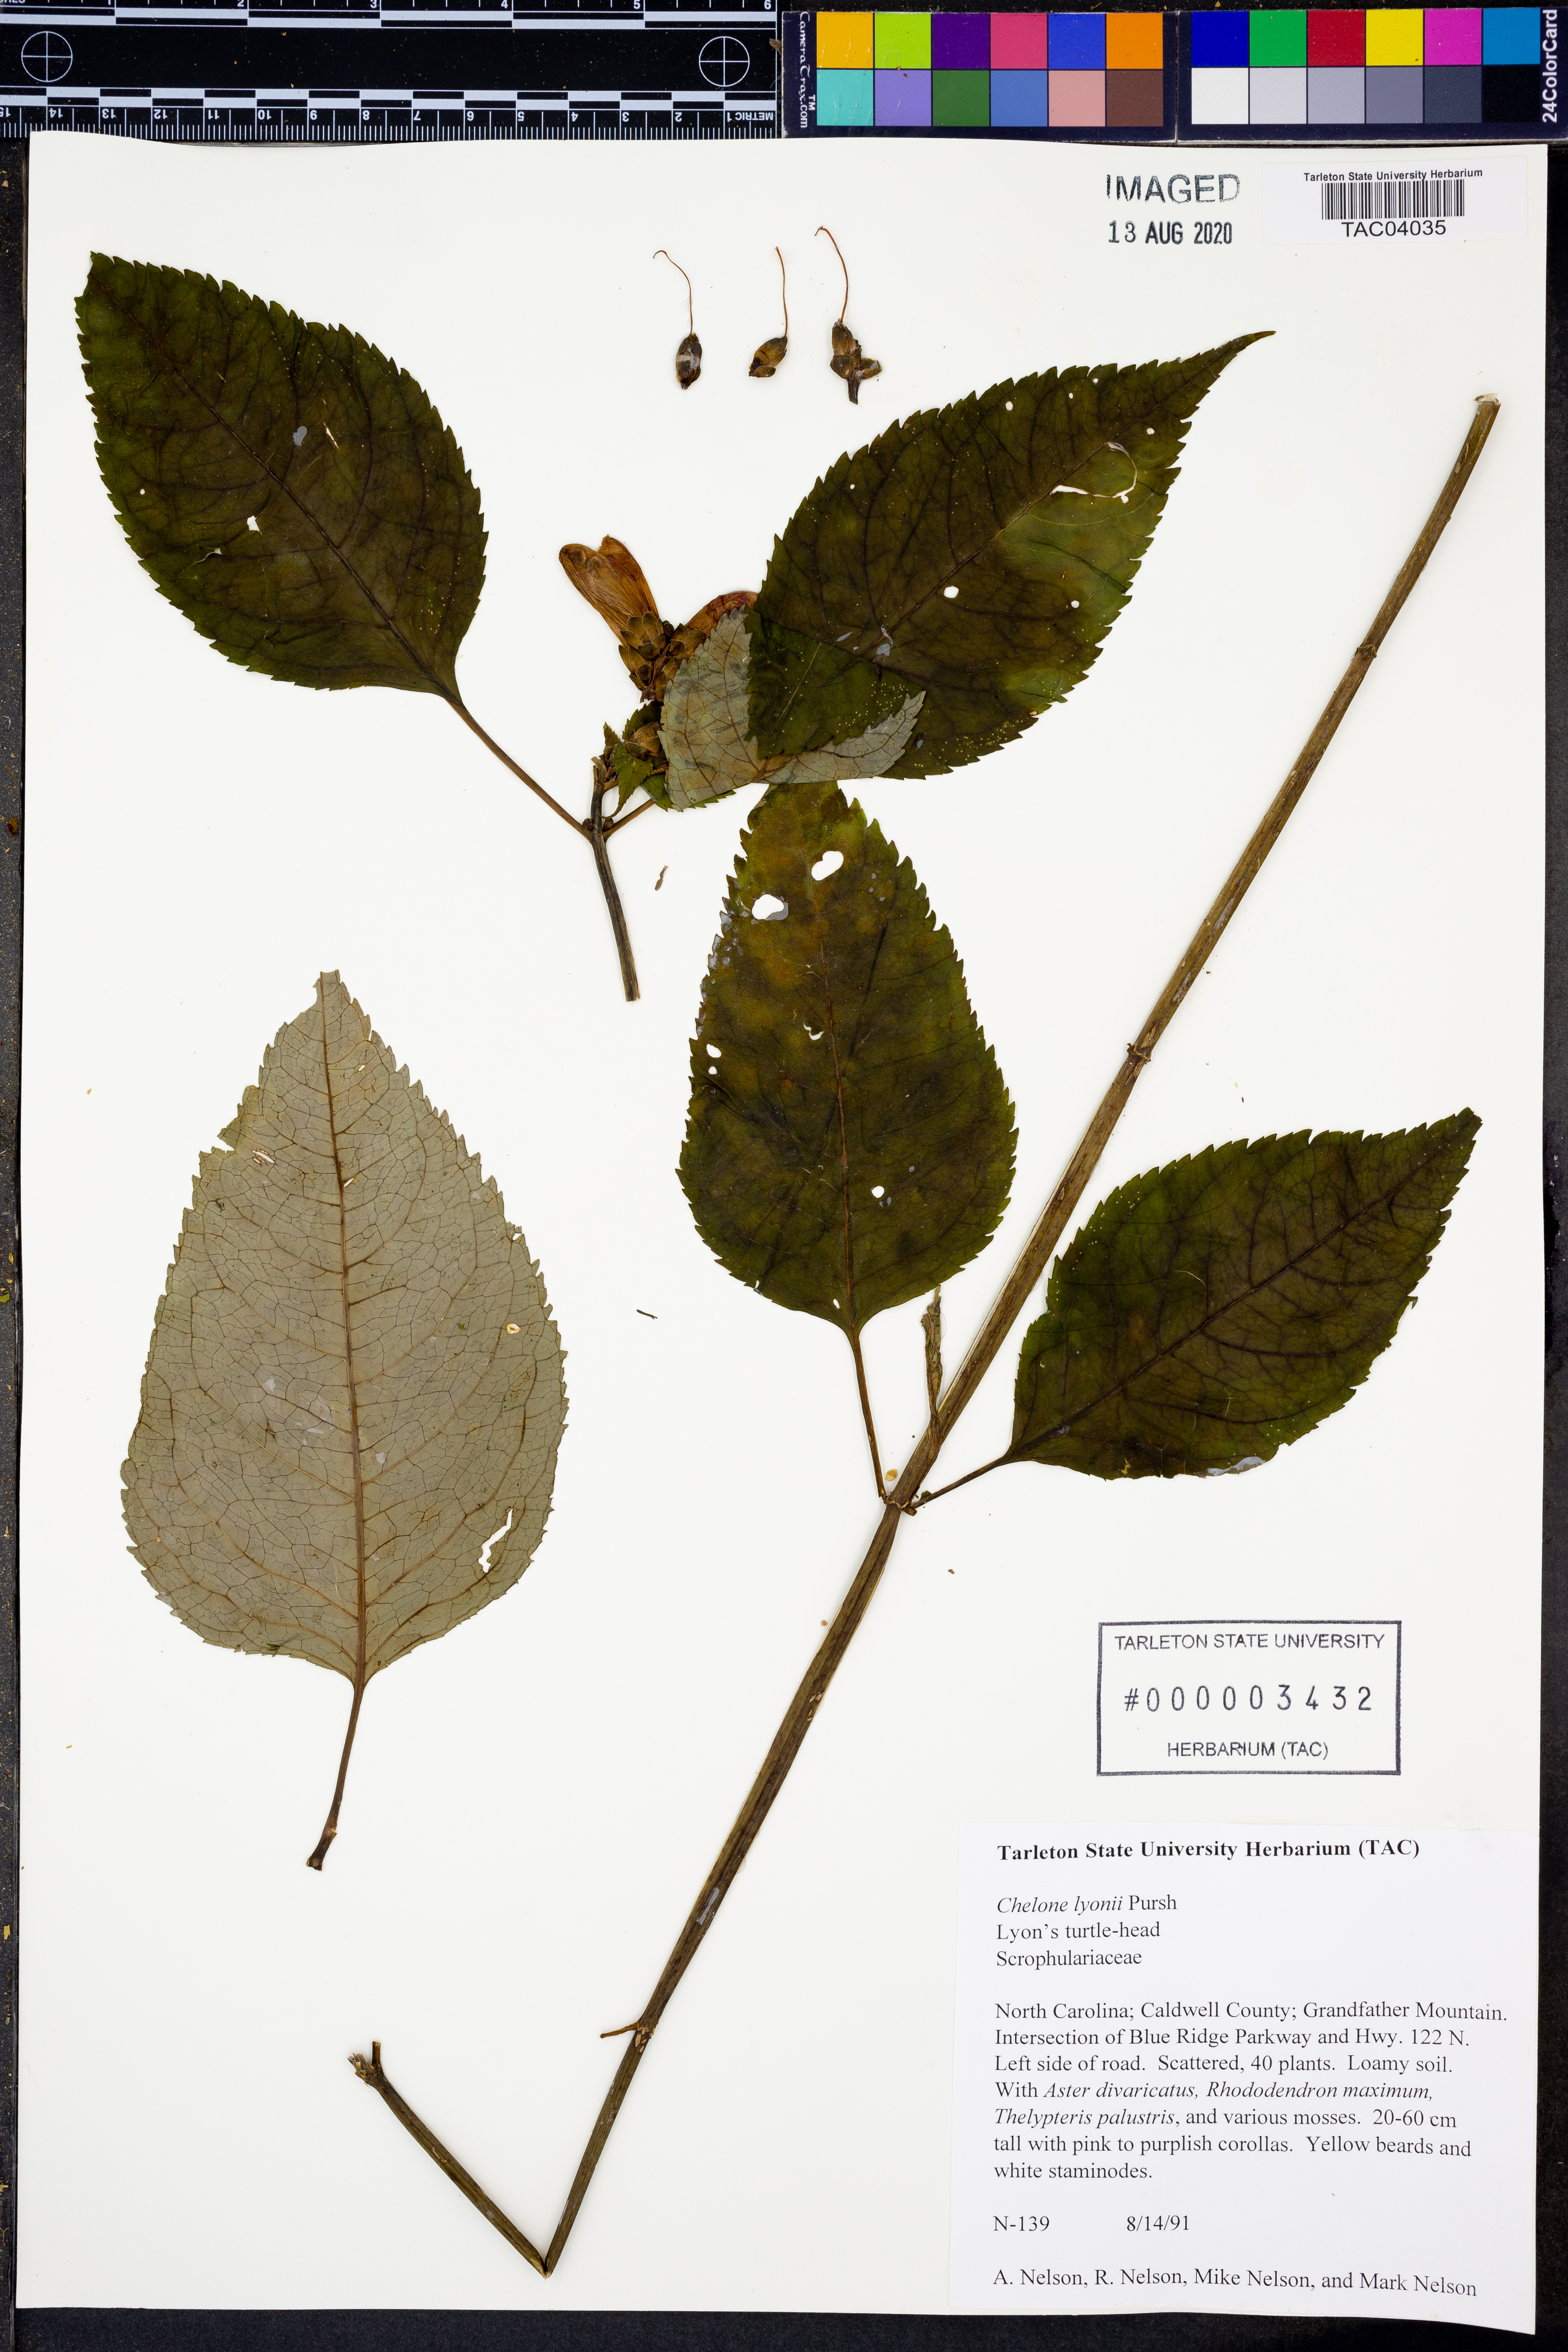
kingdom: Plantae
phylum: Tracheophyta
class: Magnoliopsida
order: Lamiales
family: Plantaginaceae
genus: Chelone
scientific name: Chelone lyonii
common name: Pink turtlehead
